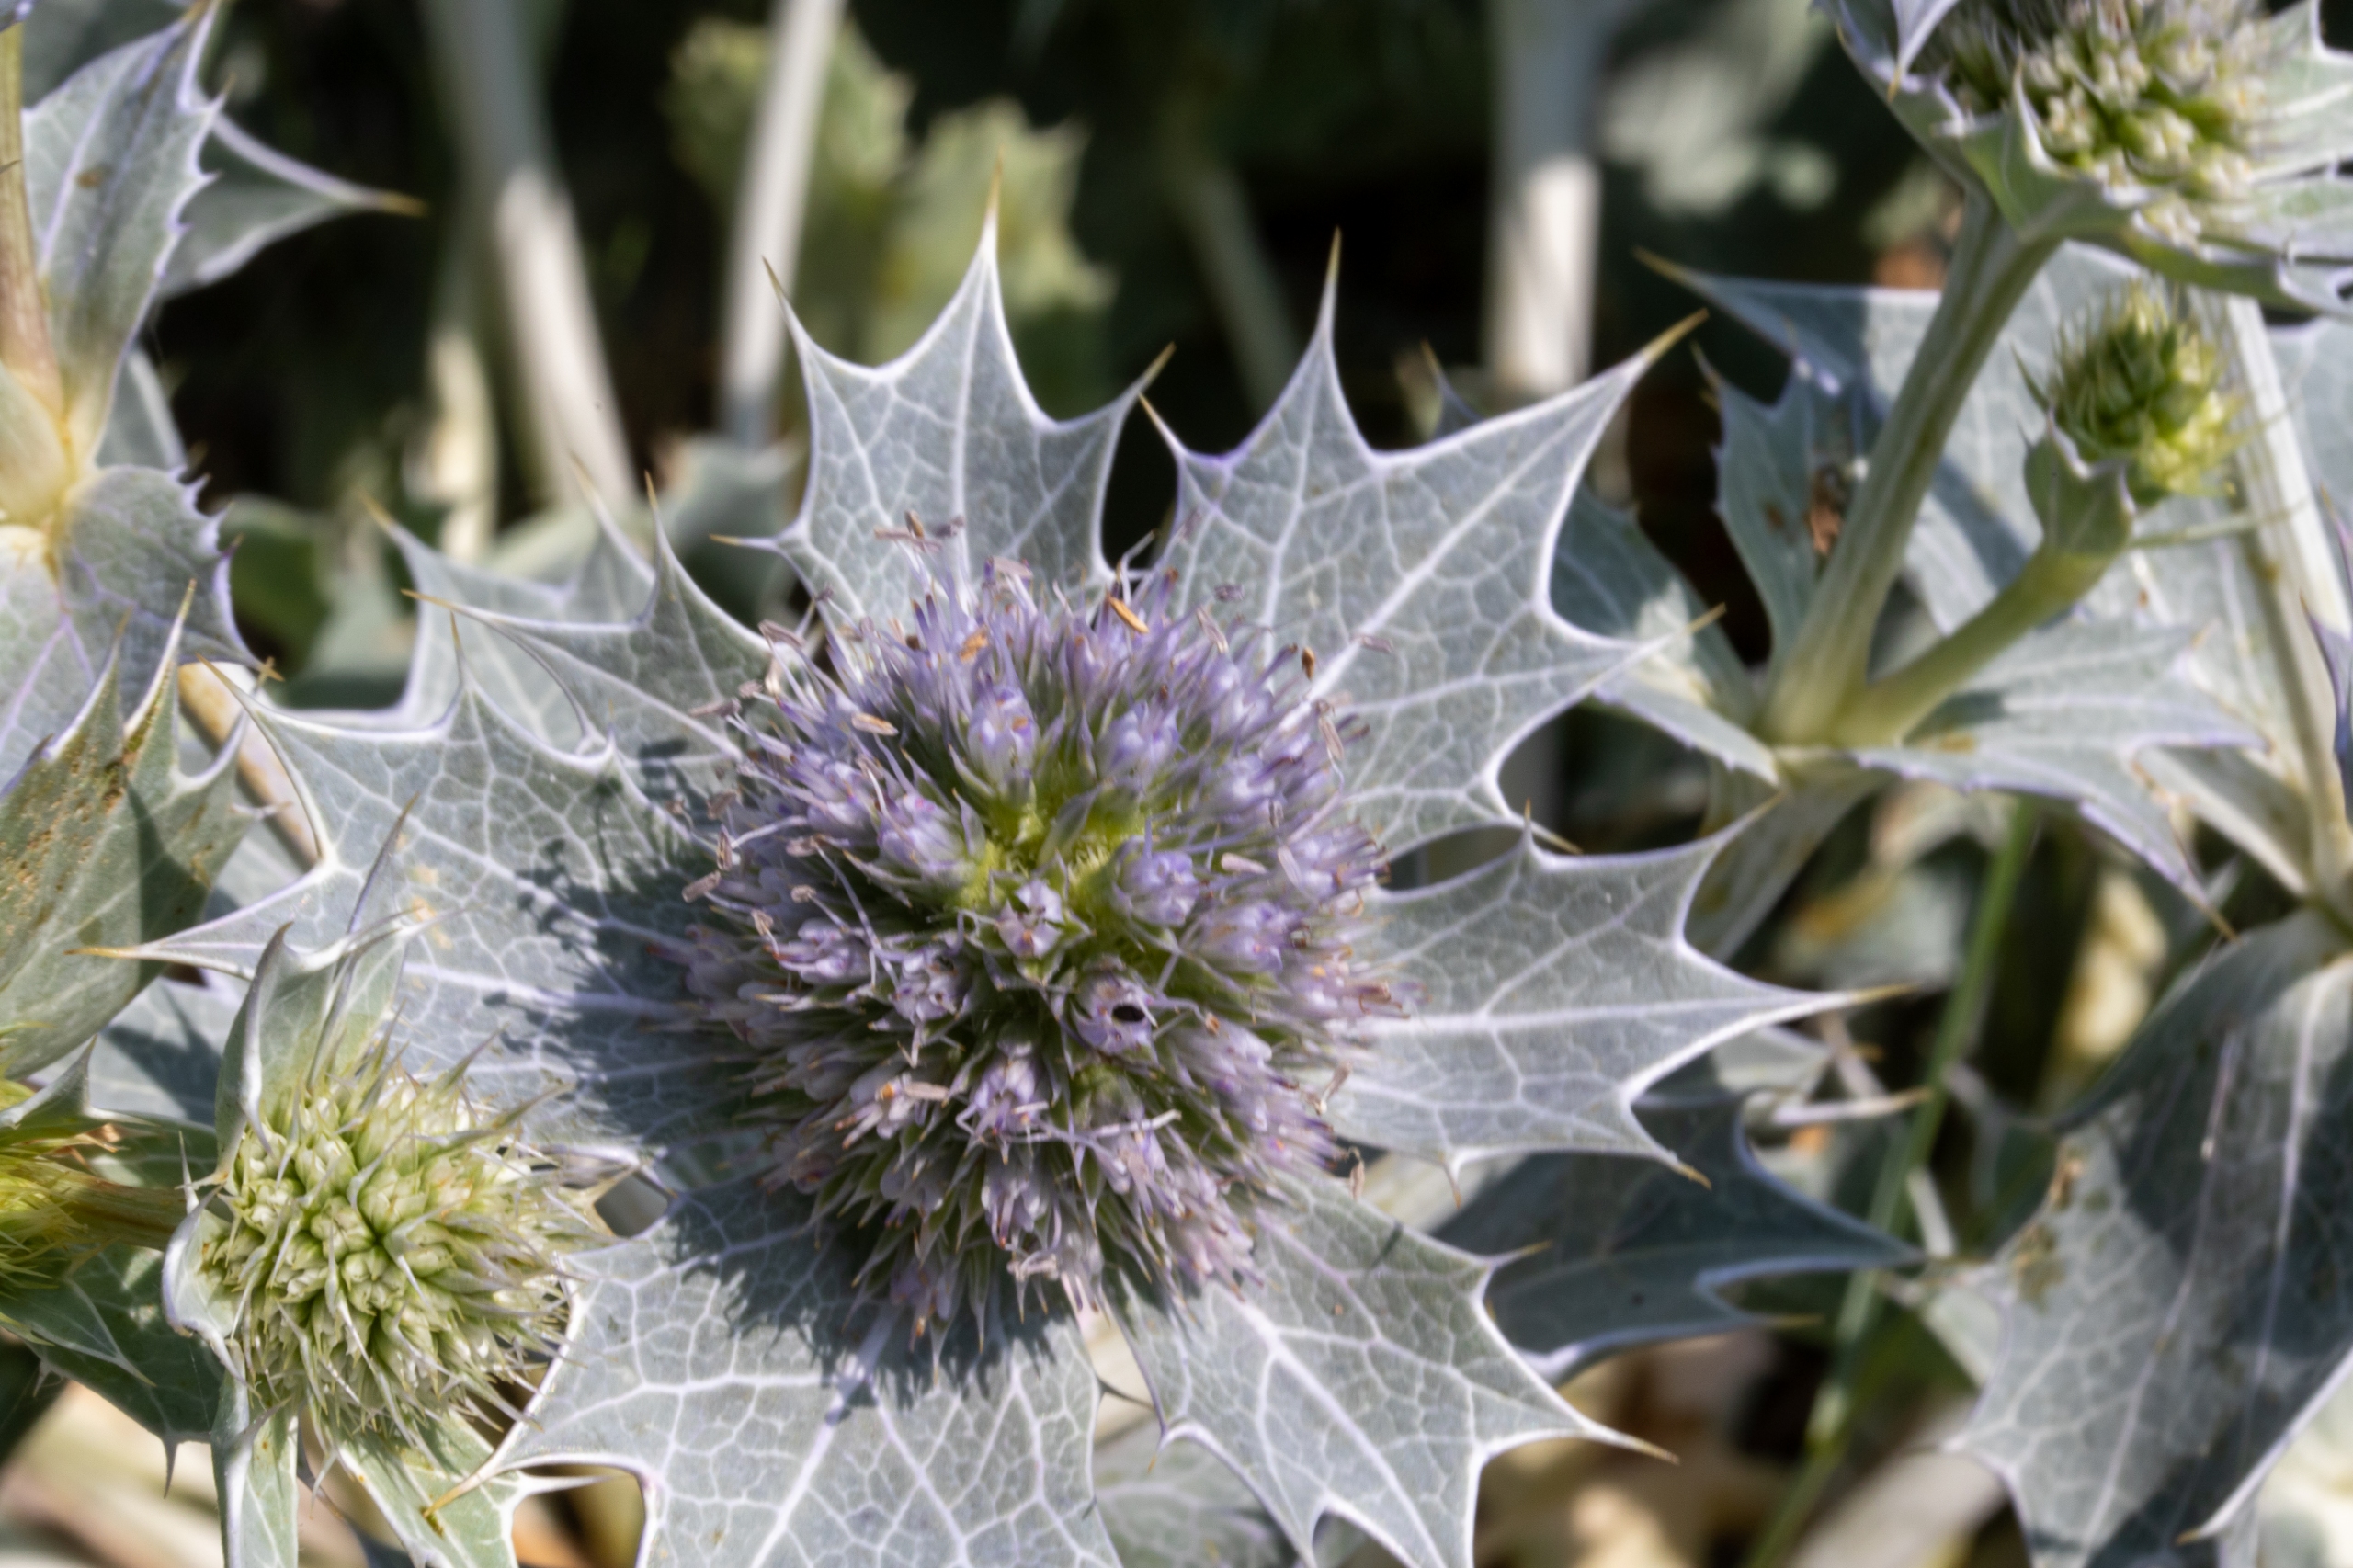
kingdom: Plantae
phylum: Tracheophyta
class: Magnoliopsida
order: Apiales
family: Apiaceae
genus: Eryngium
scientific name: Eryngium maritimum
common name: Strand-mandstro
